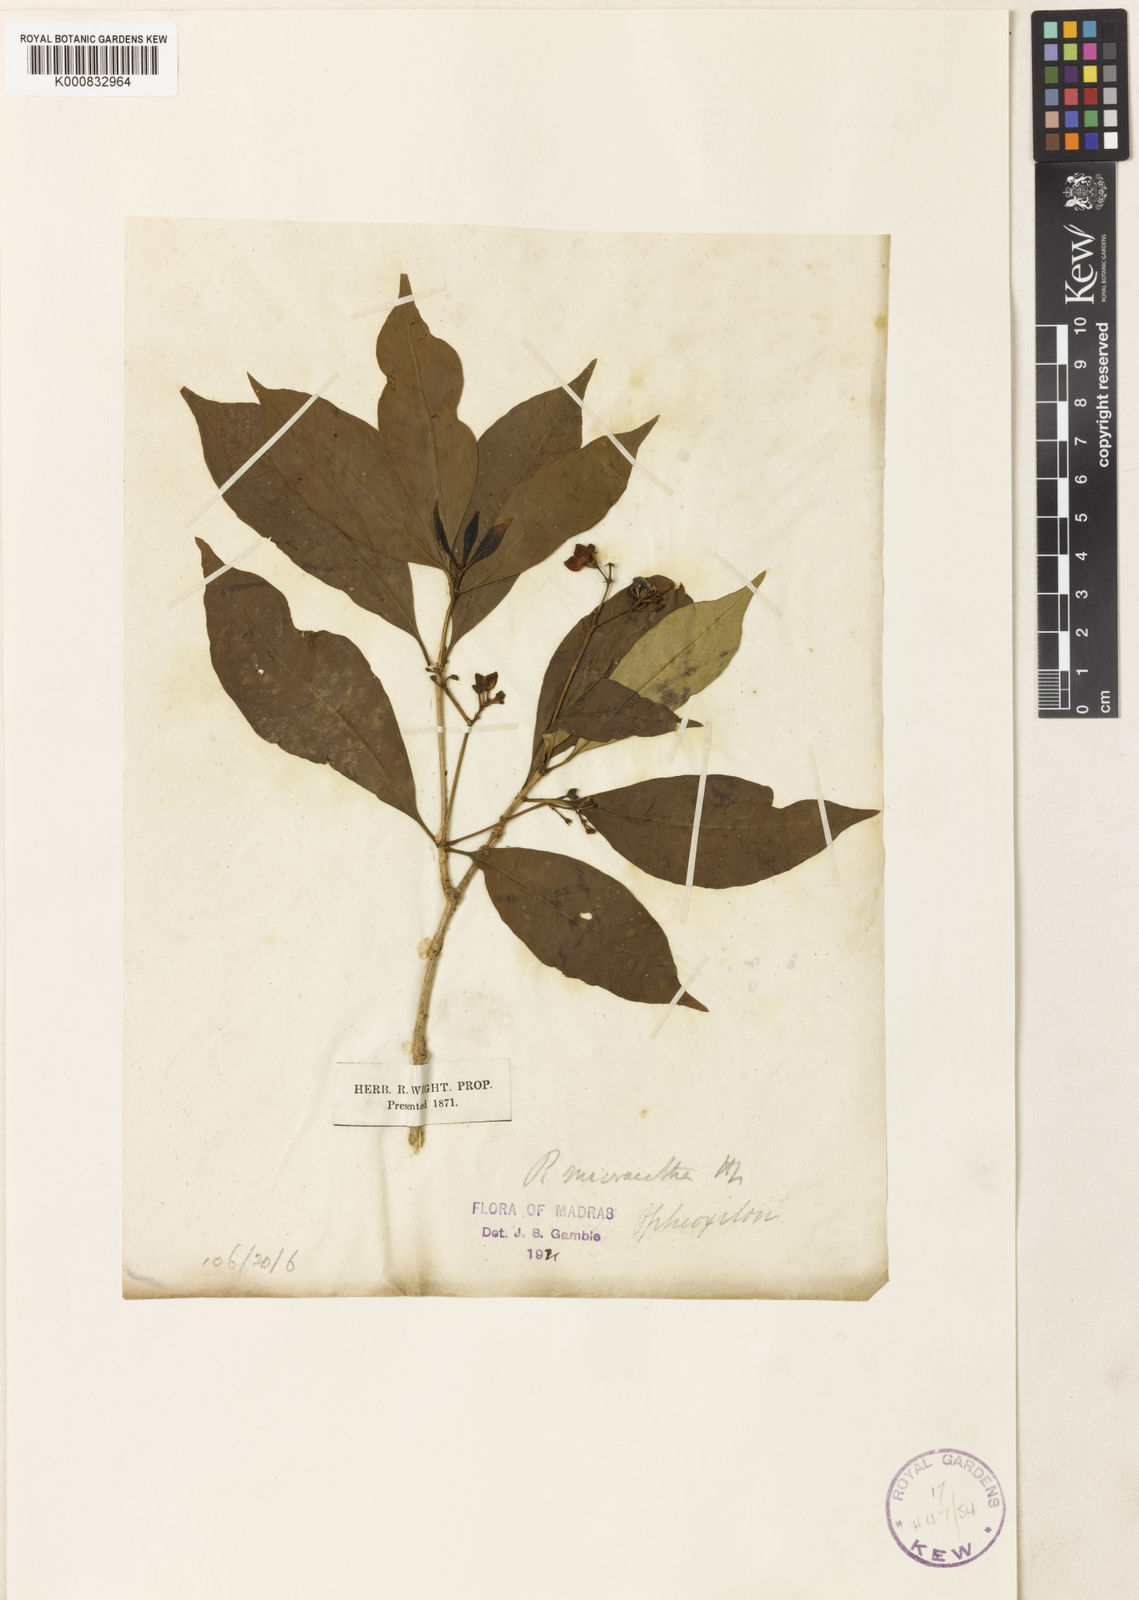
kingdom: Plantae
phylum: Tracheophyta
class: Magnoliopsida
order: Gentianales
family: Apocynaceae
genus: Rauvolfia
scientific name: Rauvolfia micrantha
